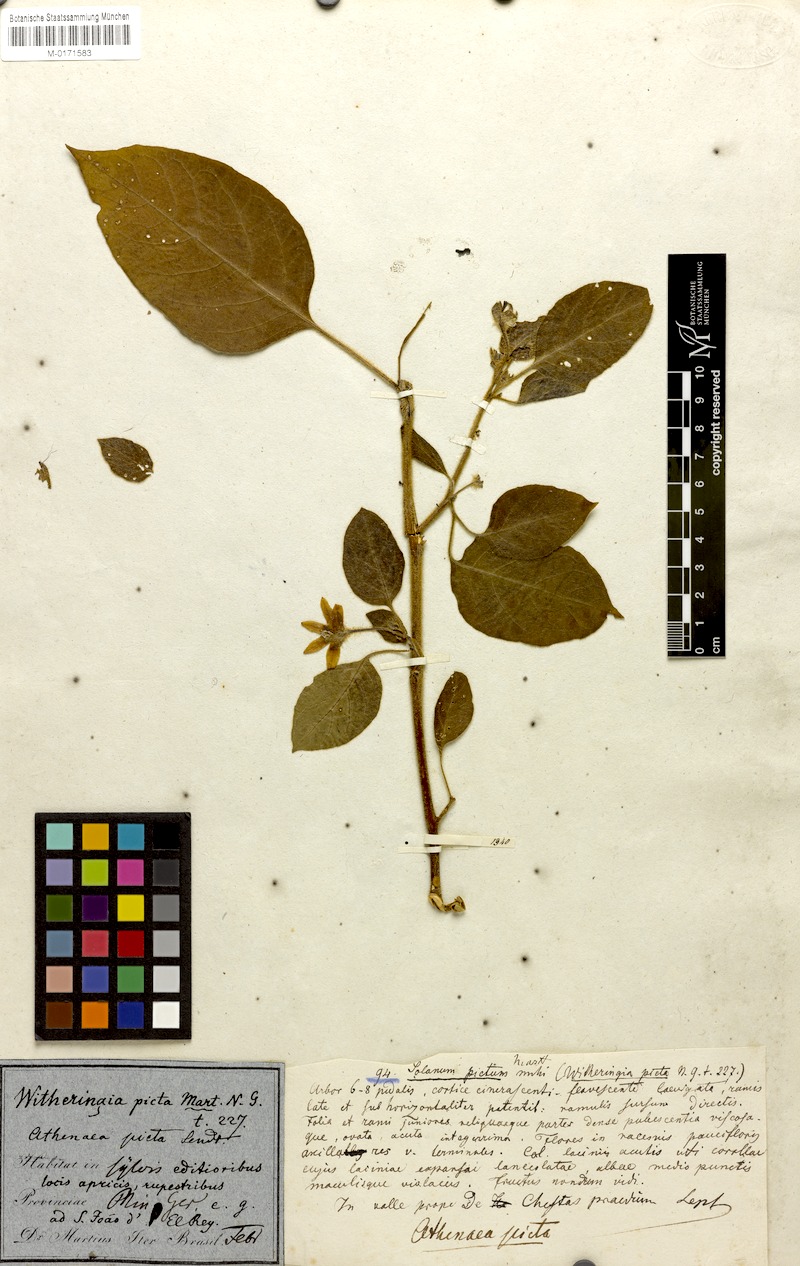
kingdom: Plantae
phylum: Tracheophyta
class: Magnoliopsida
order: Solanales
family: Solanaceae
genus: Athenaea
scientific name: Athenaea picta
